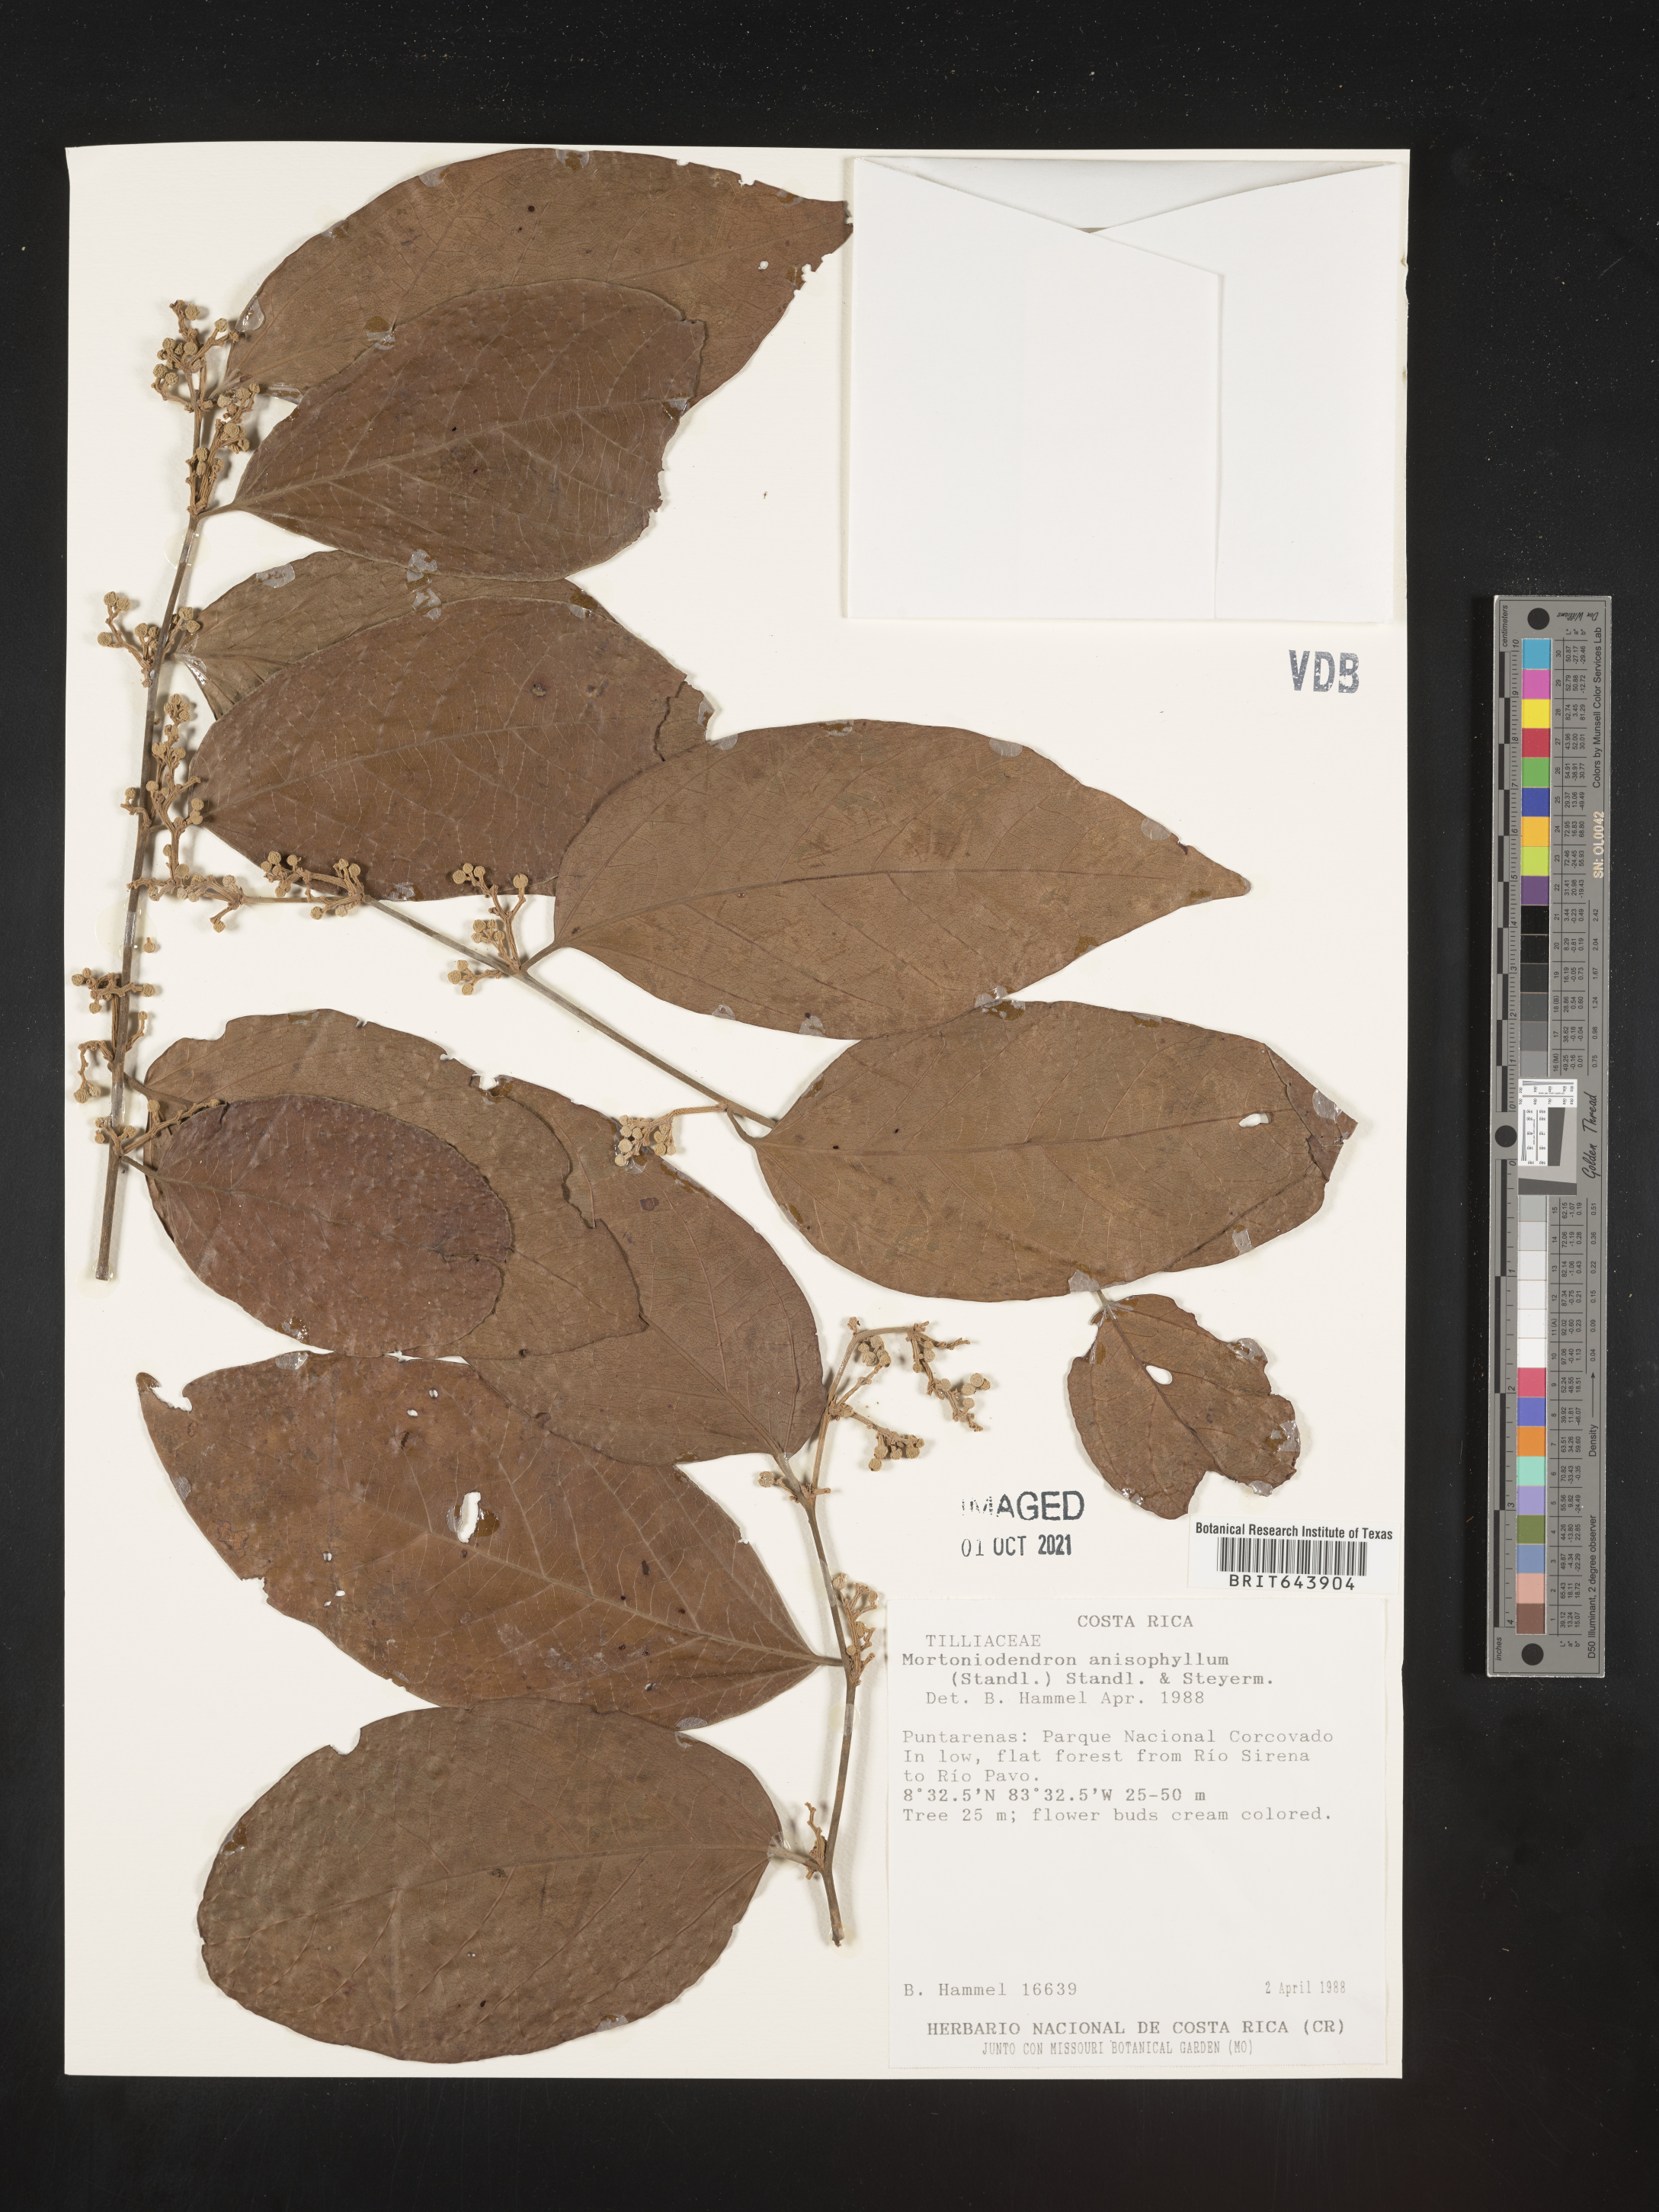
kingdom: Plantae
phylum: Tracheophyta
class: Magnoliopsida
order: Malvales
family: Malvaceae
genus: Mortoniodendron
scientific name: Mortoniodendron
